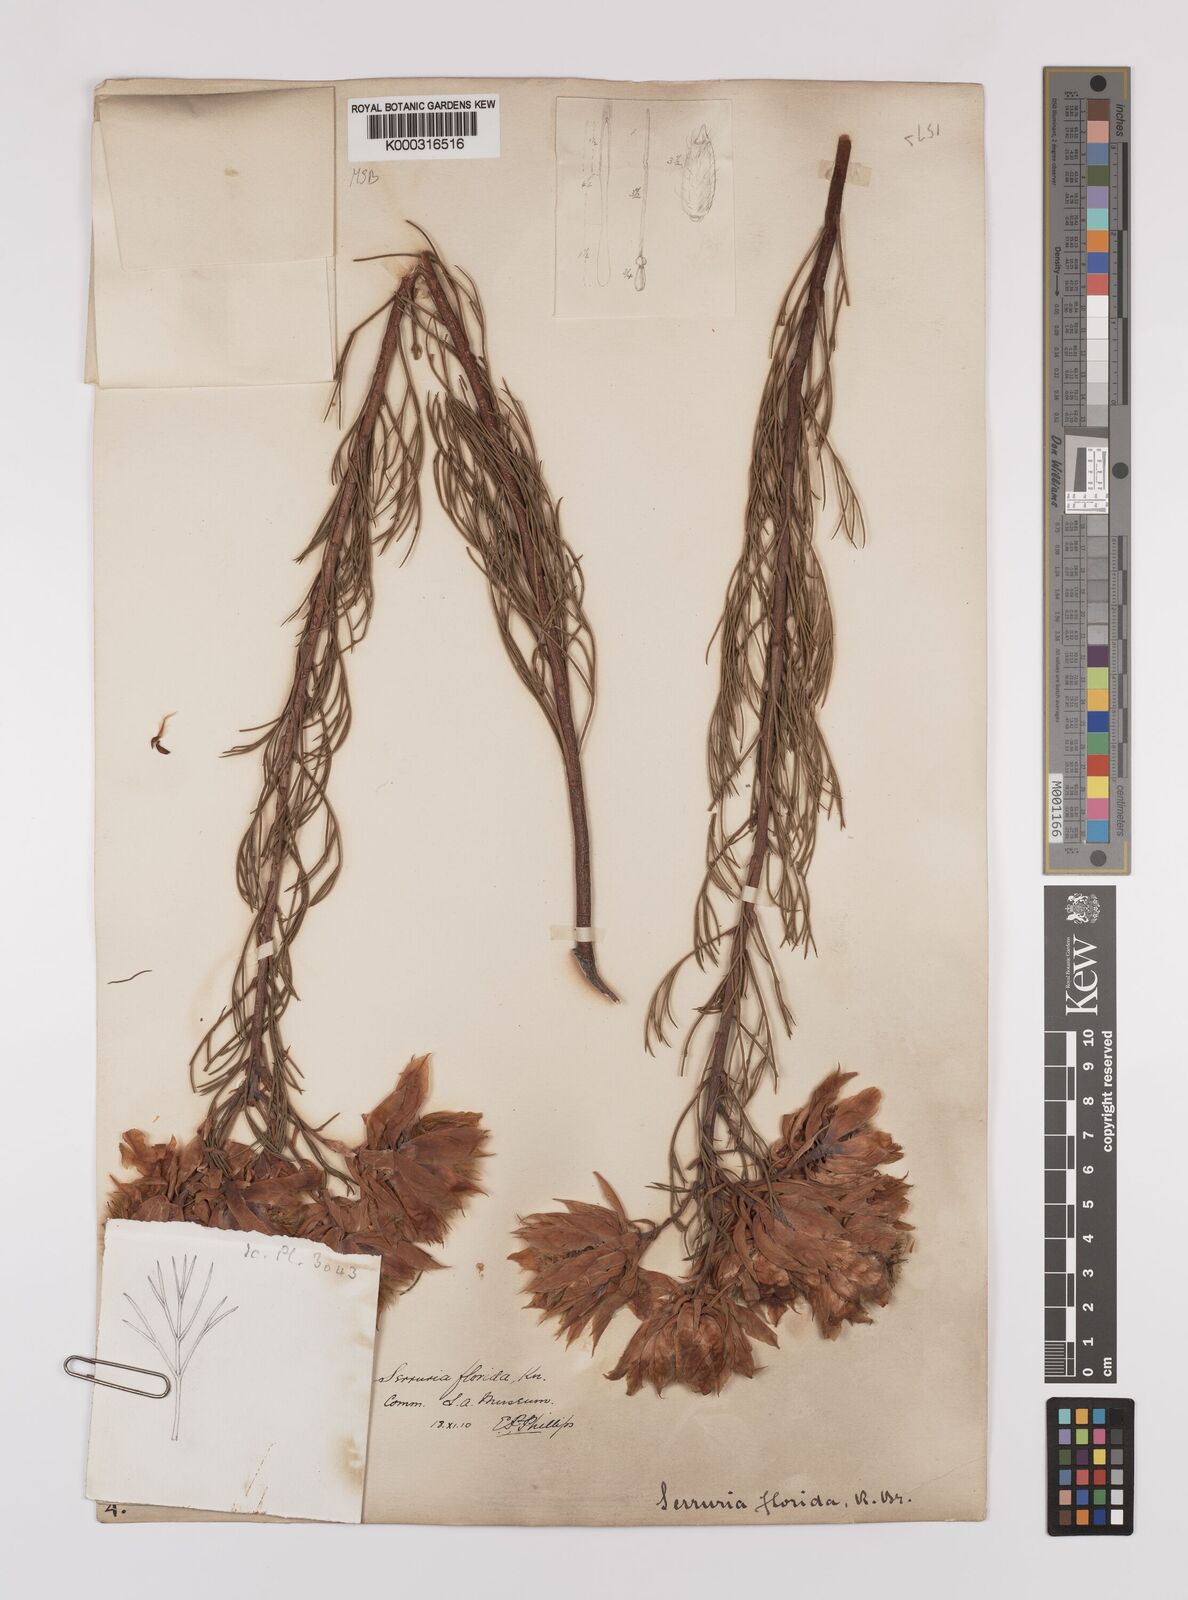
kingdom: Plantae
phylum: Tracheophyta
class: Magnoliopsida
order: Proteales
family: Proteaceae
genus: Serruria
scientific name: Serruria florida
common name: Blushing bride
